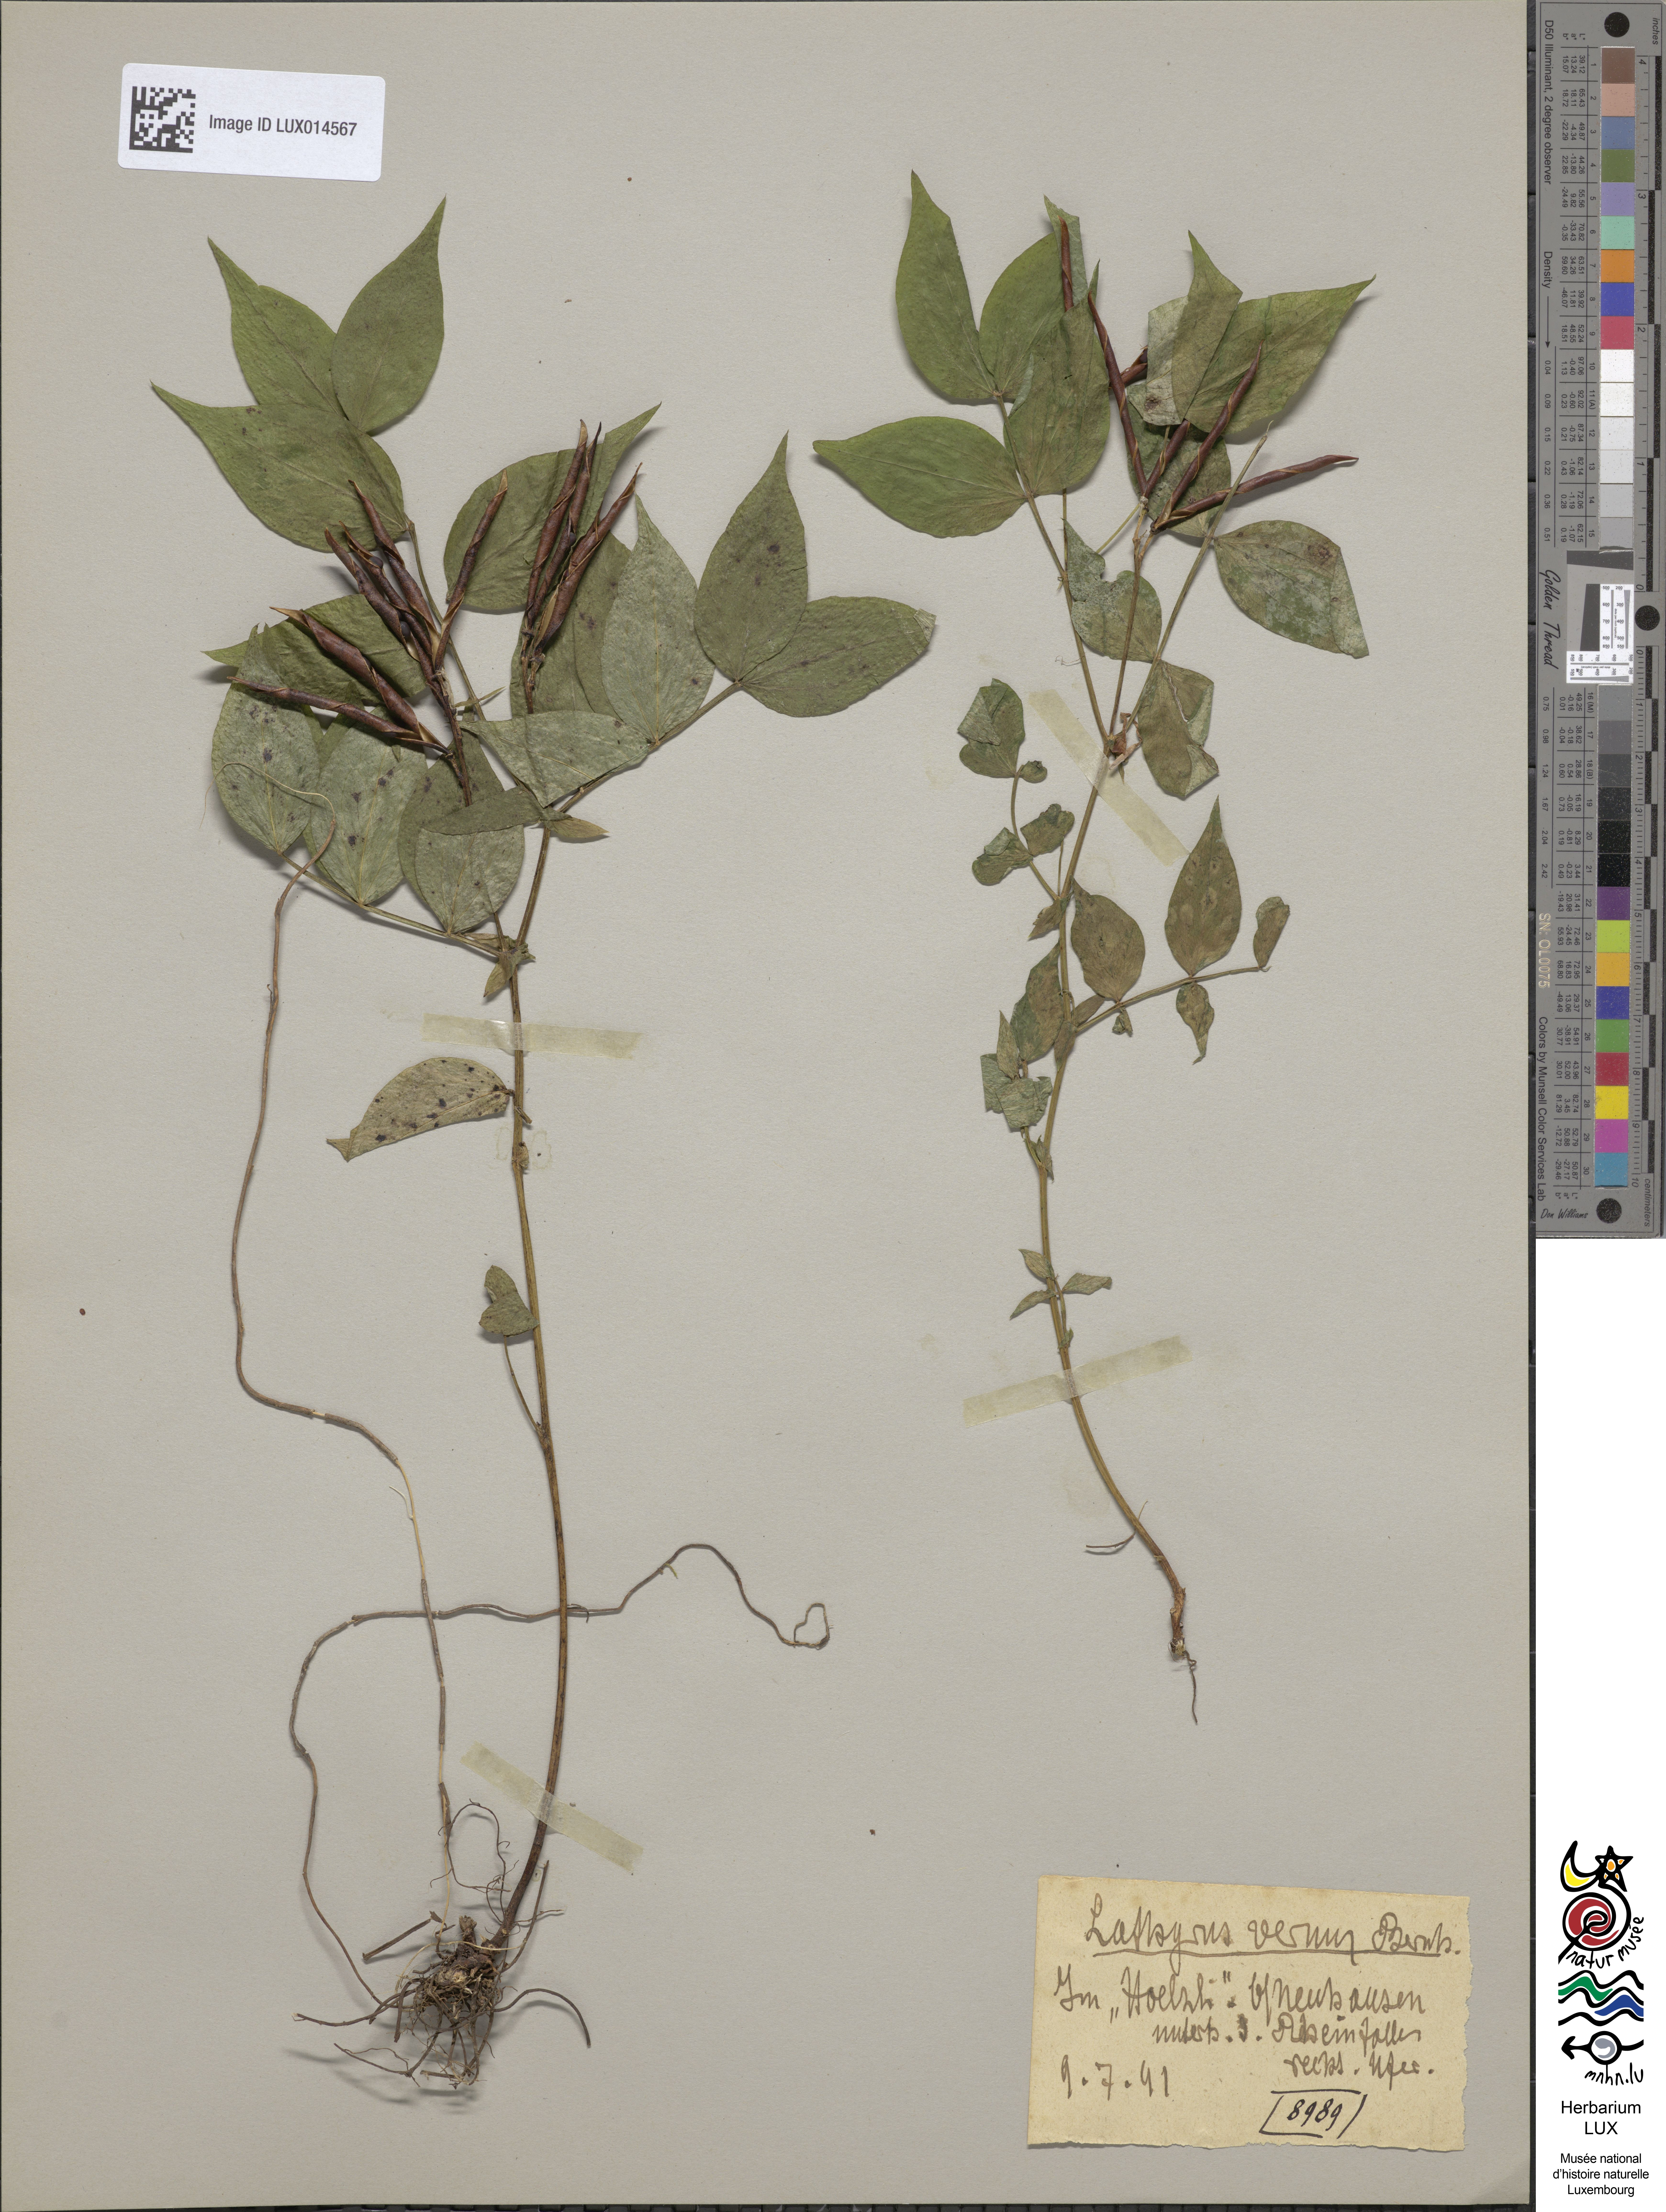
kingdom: Plantae
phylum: Tracheophyta
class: Magnoliopsida
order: Fabales
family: Fabaceae
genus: Lathyrus
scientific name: Lathyrus vernus
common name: Spring pea
